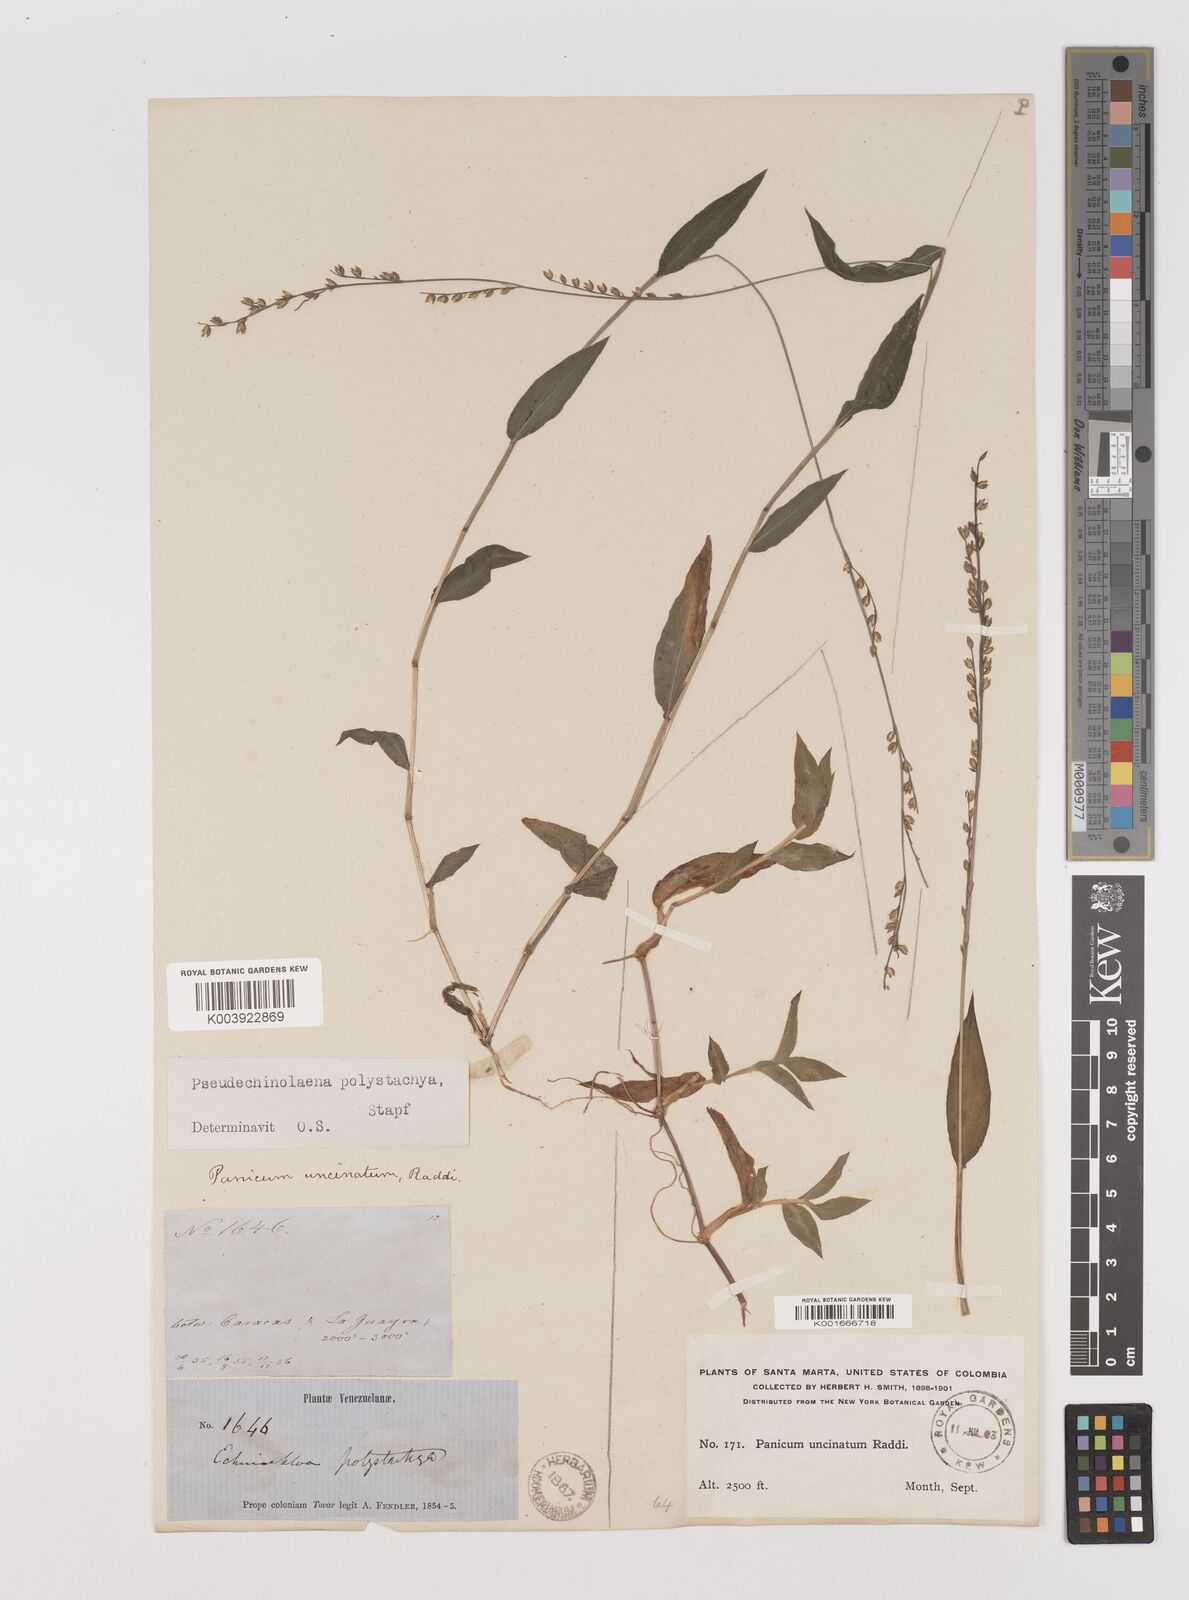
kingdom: Plantae
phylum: Tracheophyta
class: Liliopsida
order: Poales
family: Poaceae
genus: Pseudechinolaena
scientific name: Pseudechinolaena polystachya
